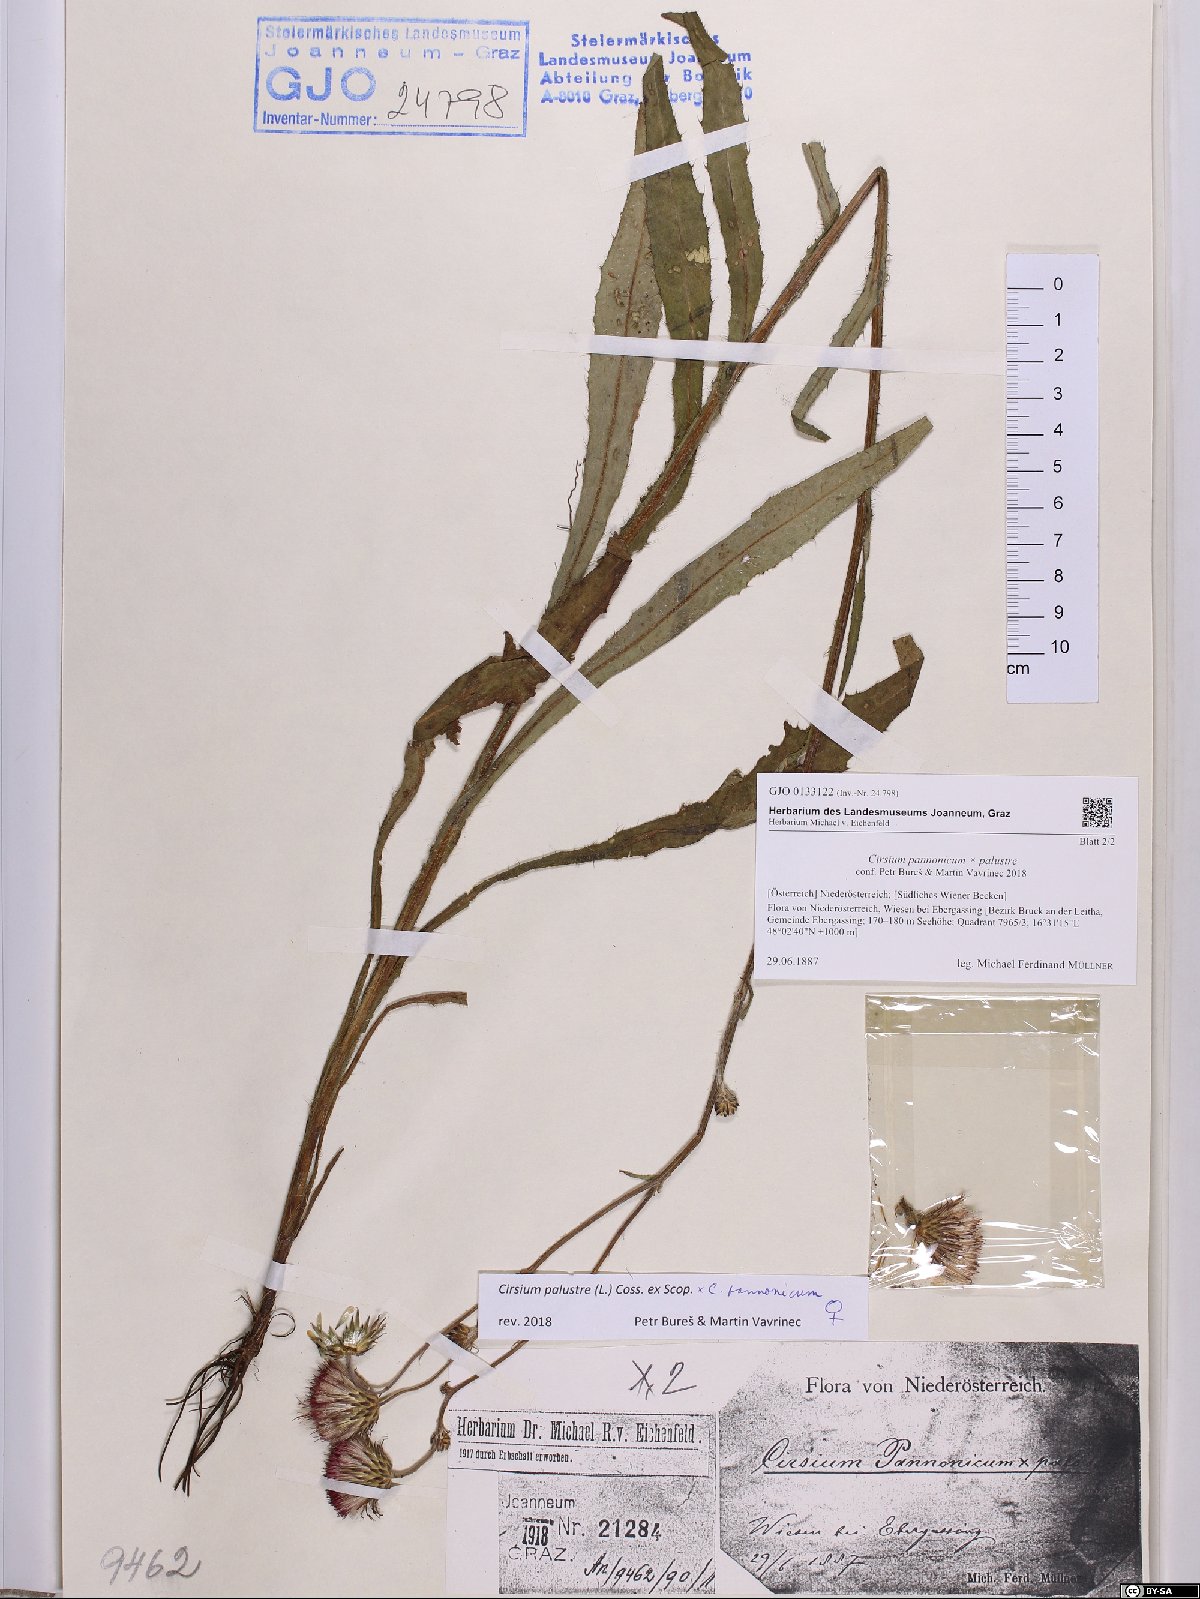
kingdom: Plantae
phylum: Tracheophyta
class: Magnoliopsida
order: Asterales
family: Asteraceae
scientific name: Asteraceae
